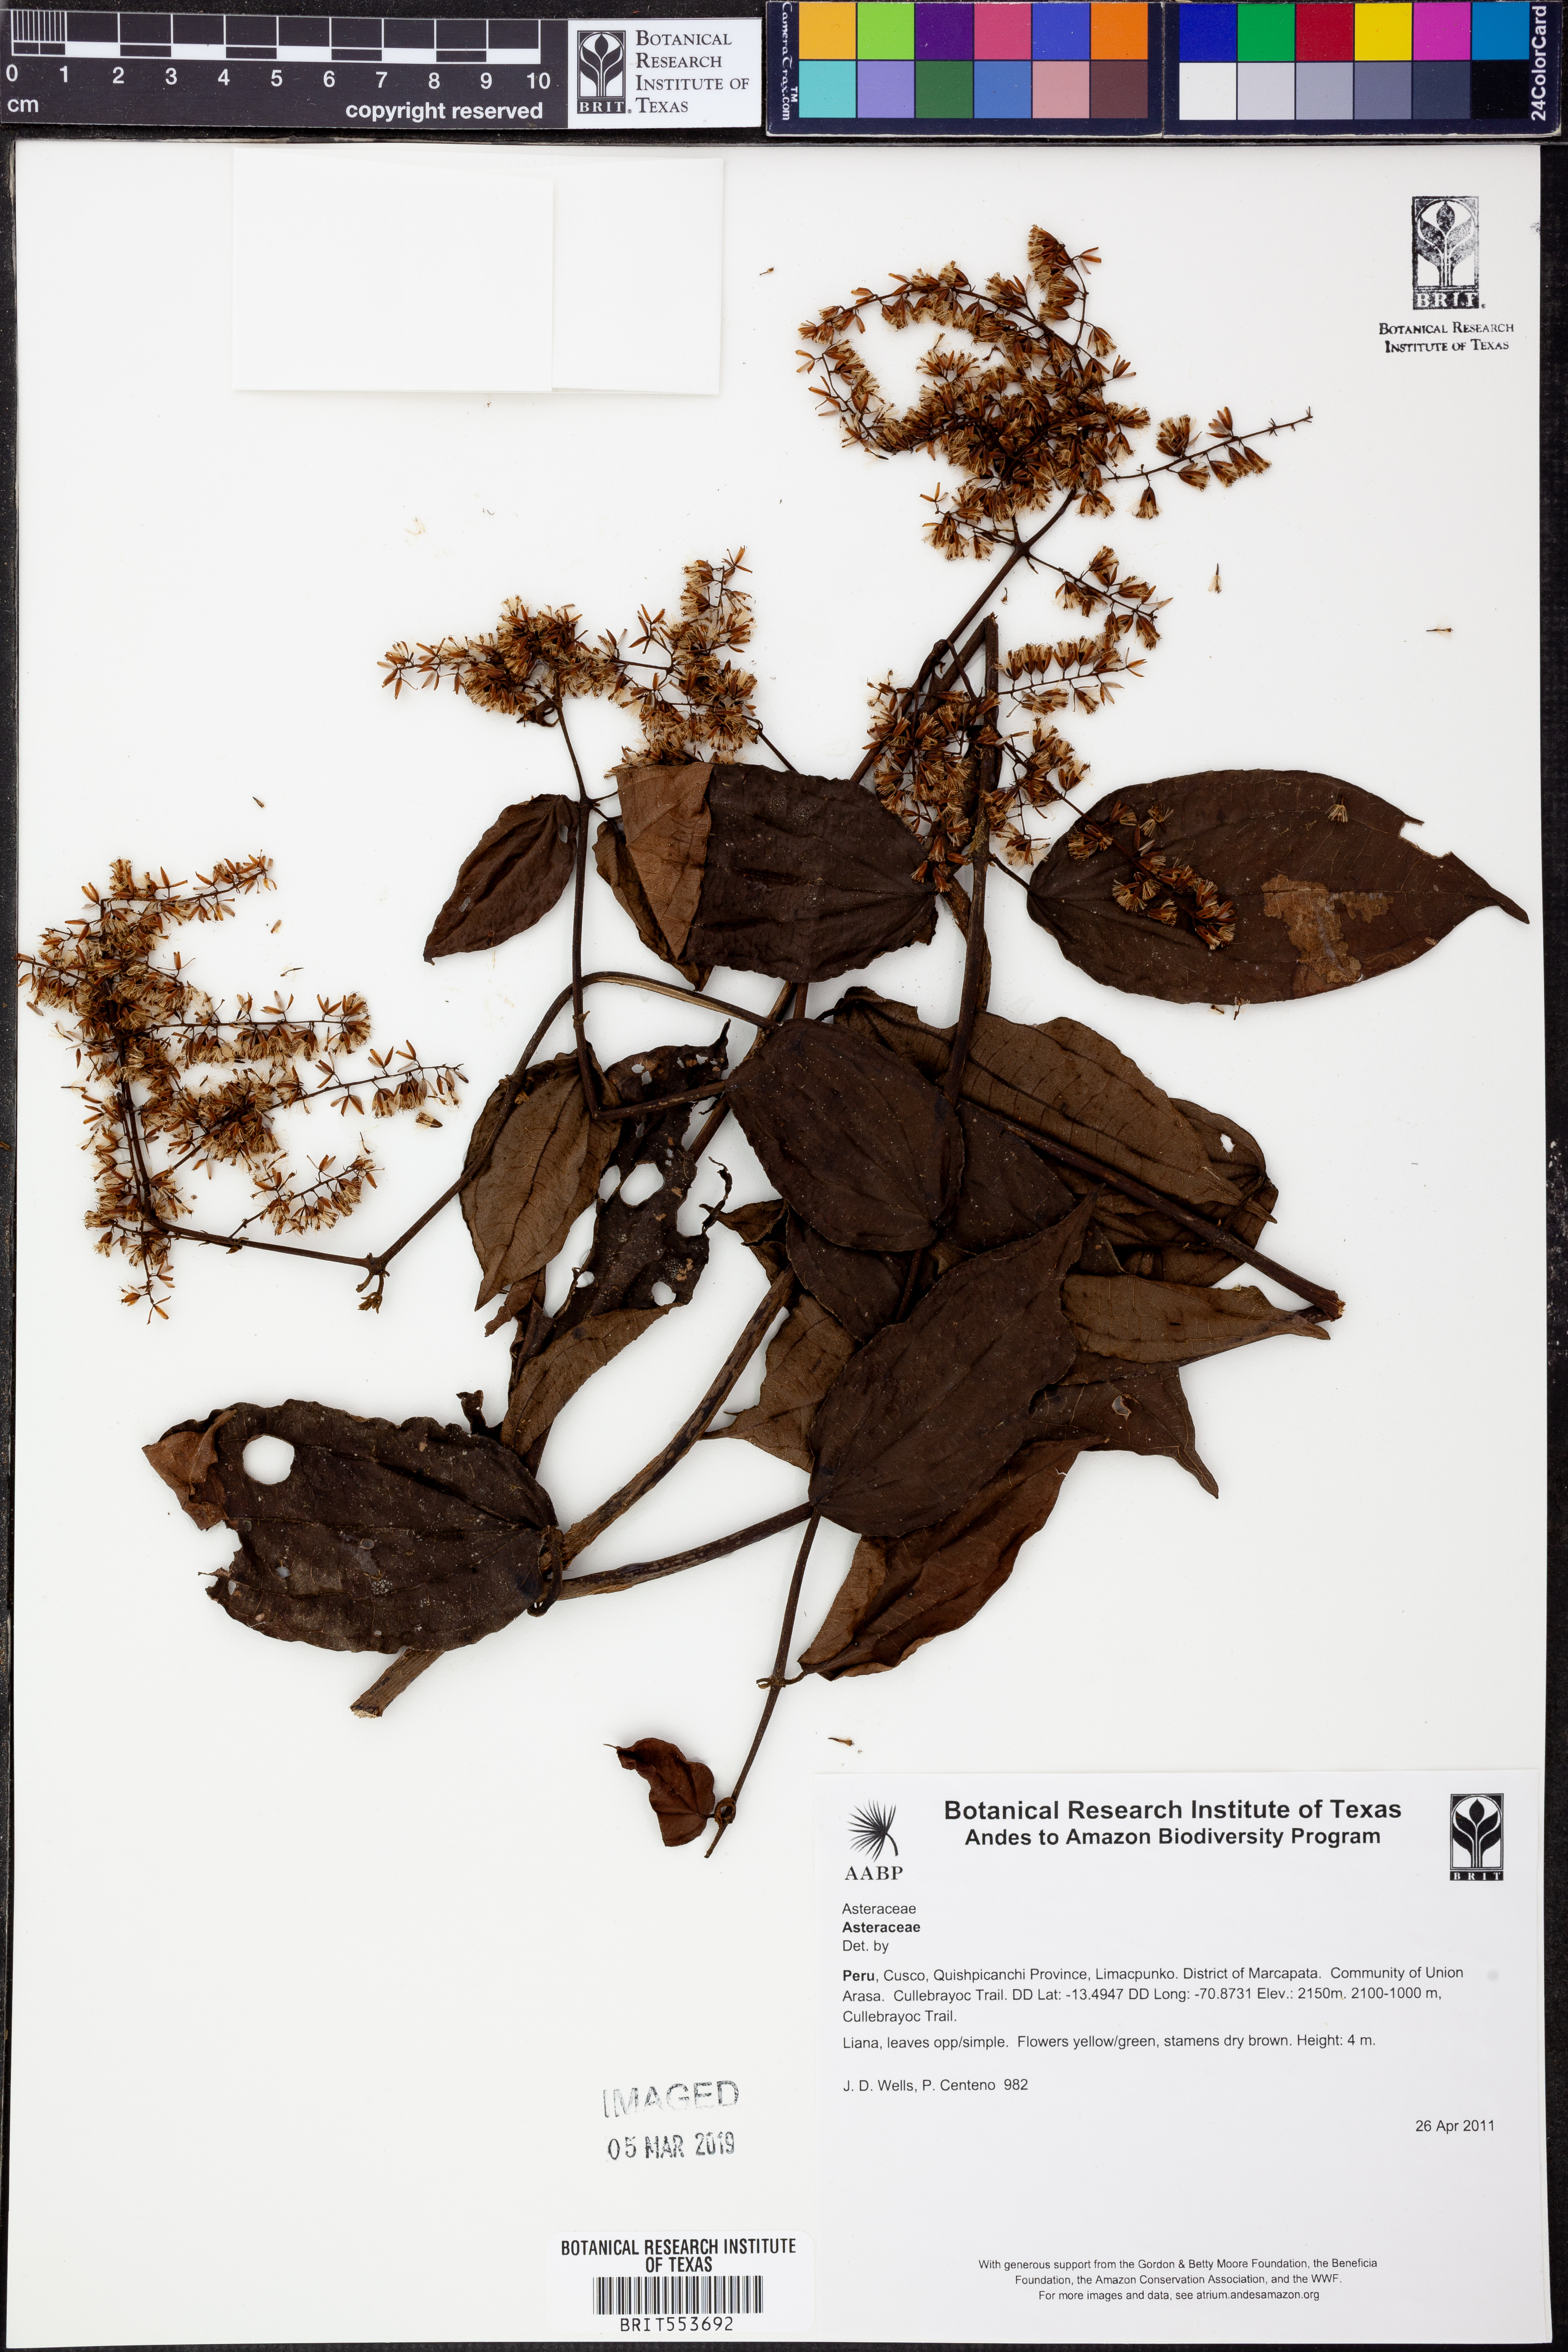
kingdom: Plantae
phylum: Tracheophyta
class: Magnoliopsida
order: Asterales
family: Asteraceae
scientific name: Asteraceae
